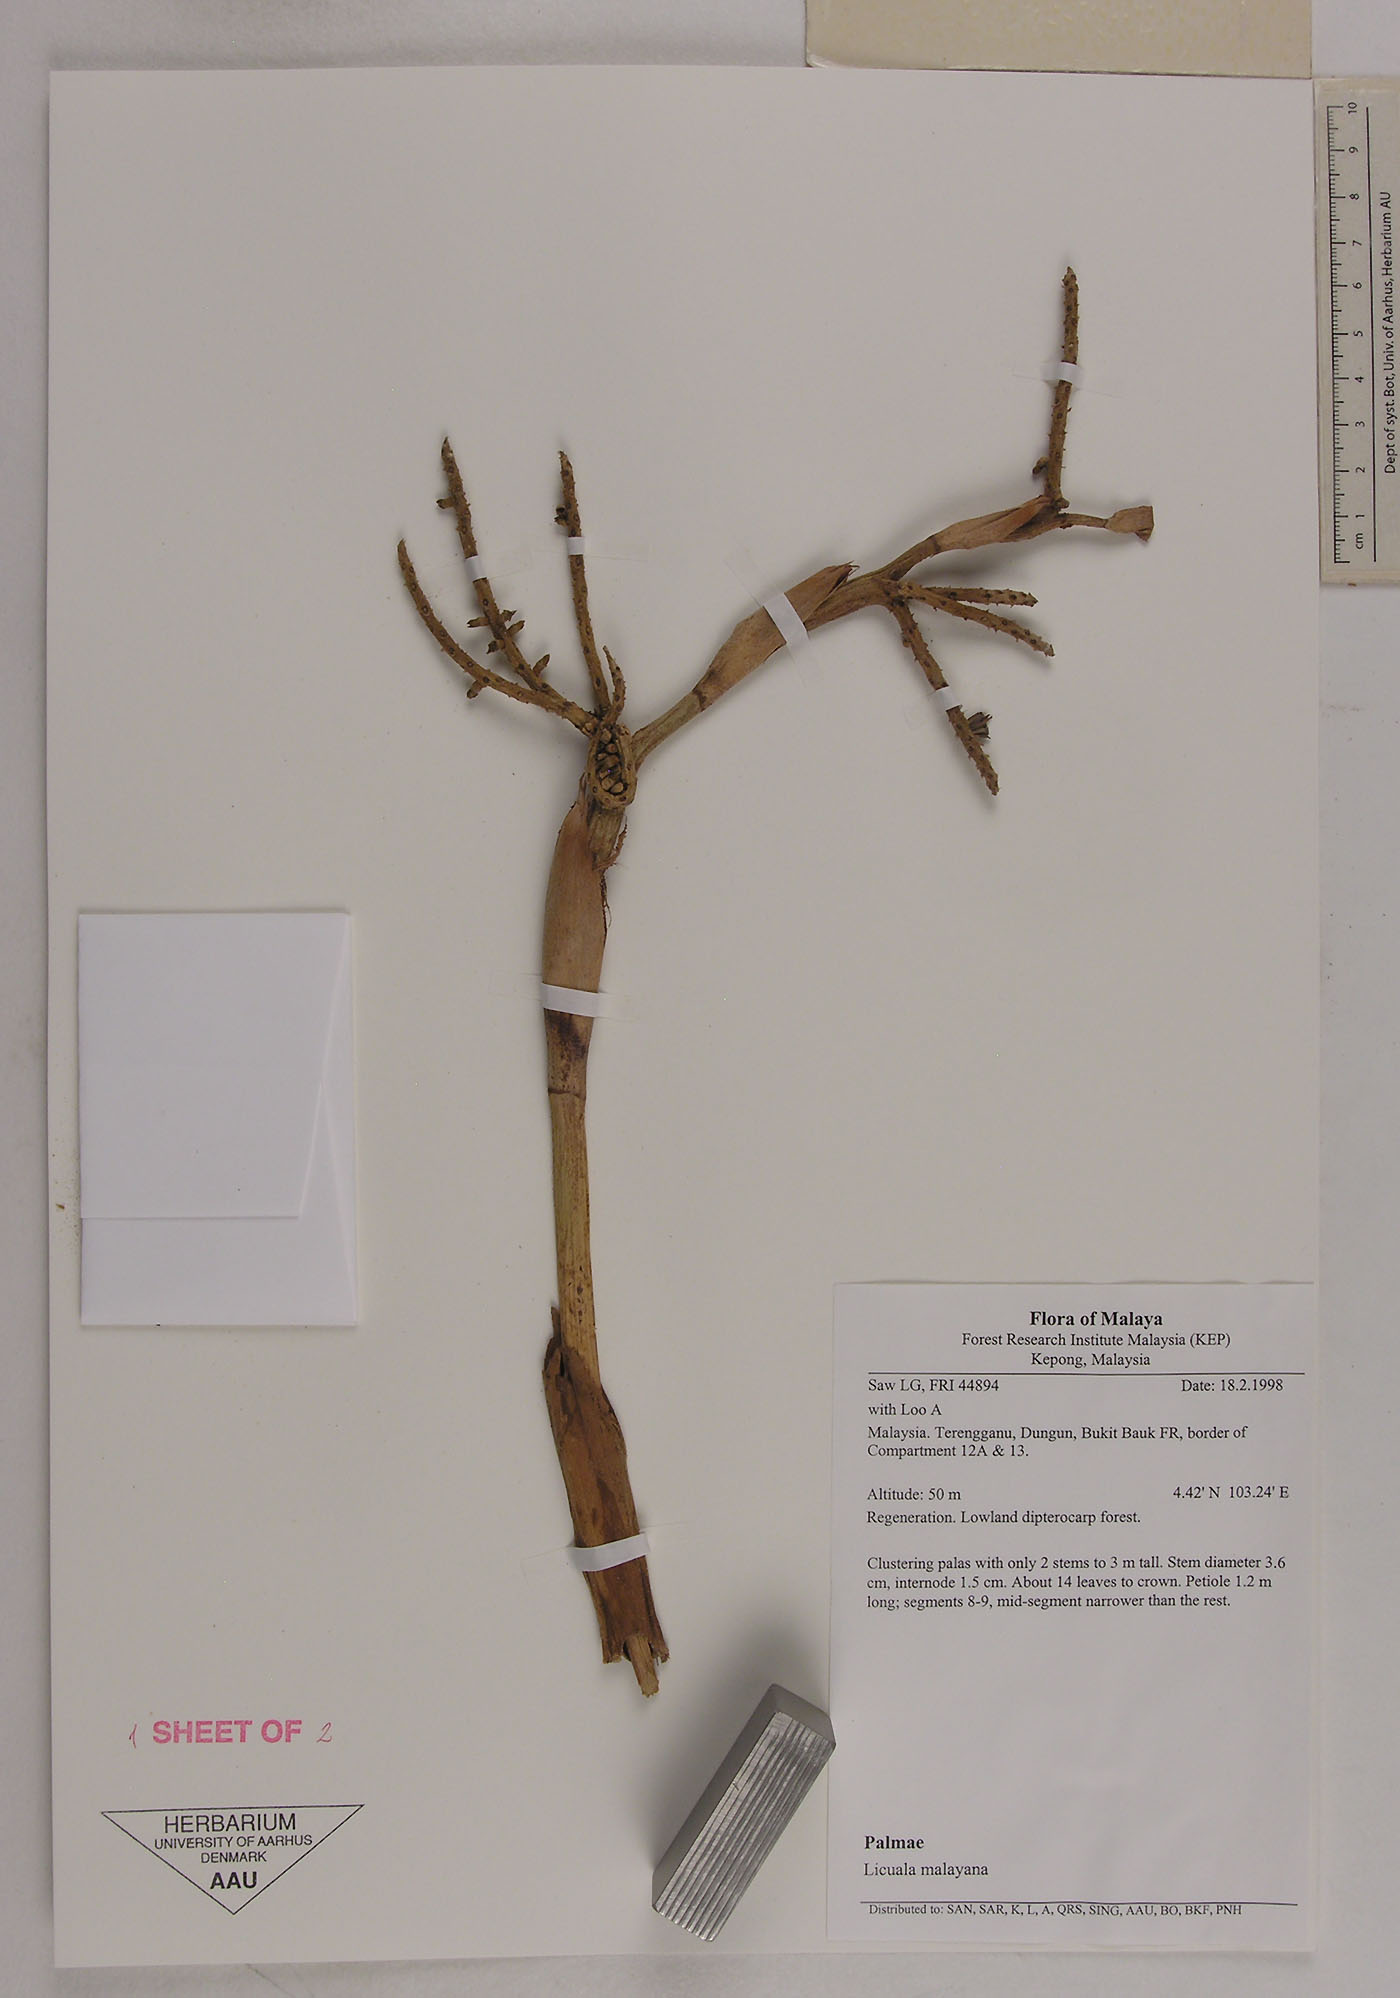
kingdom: Plantae
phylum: Tracheophyta
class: Liliopsida
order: Arecales
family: Arecaceae
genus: Licuala
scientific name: Licuala malajana
